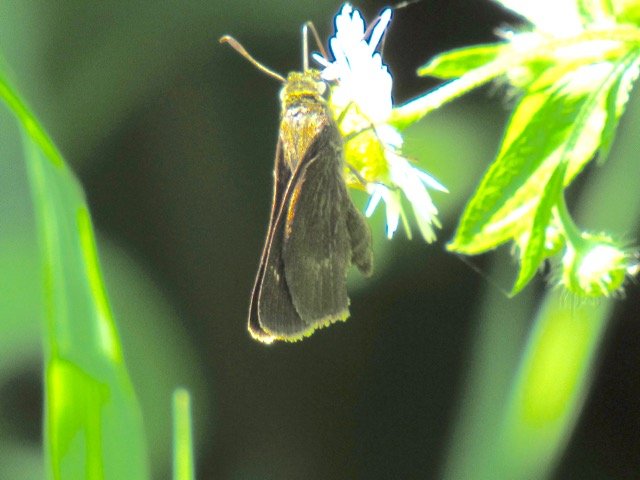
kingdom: Animalia
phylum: Arthropoda
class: Insecta
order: Lepidoptera
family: Hesperiidae
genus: Polites
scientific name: Polites egeremet
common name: Northern Broken-Dash
